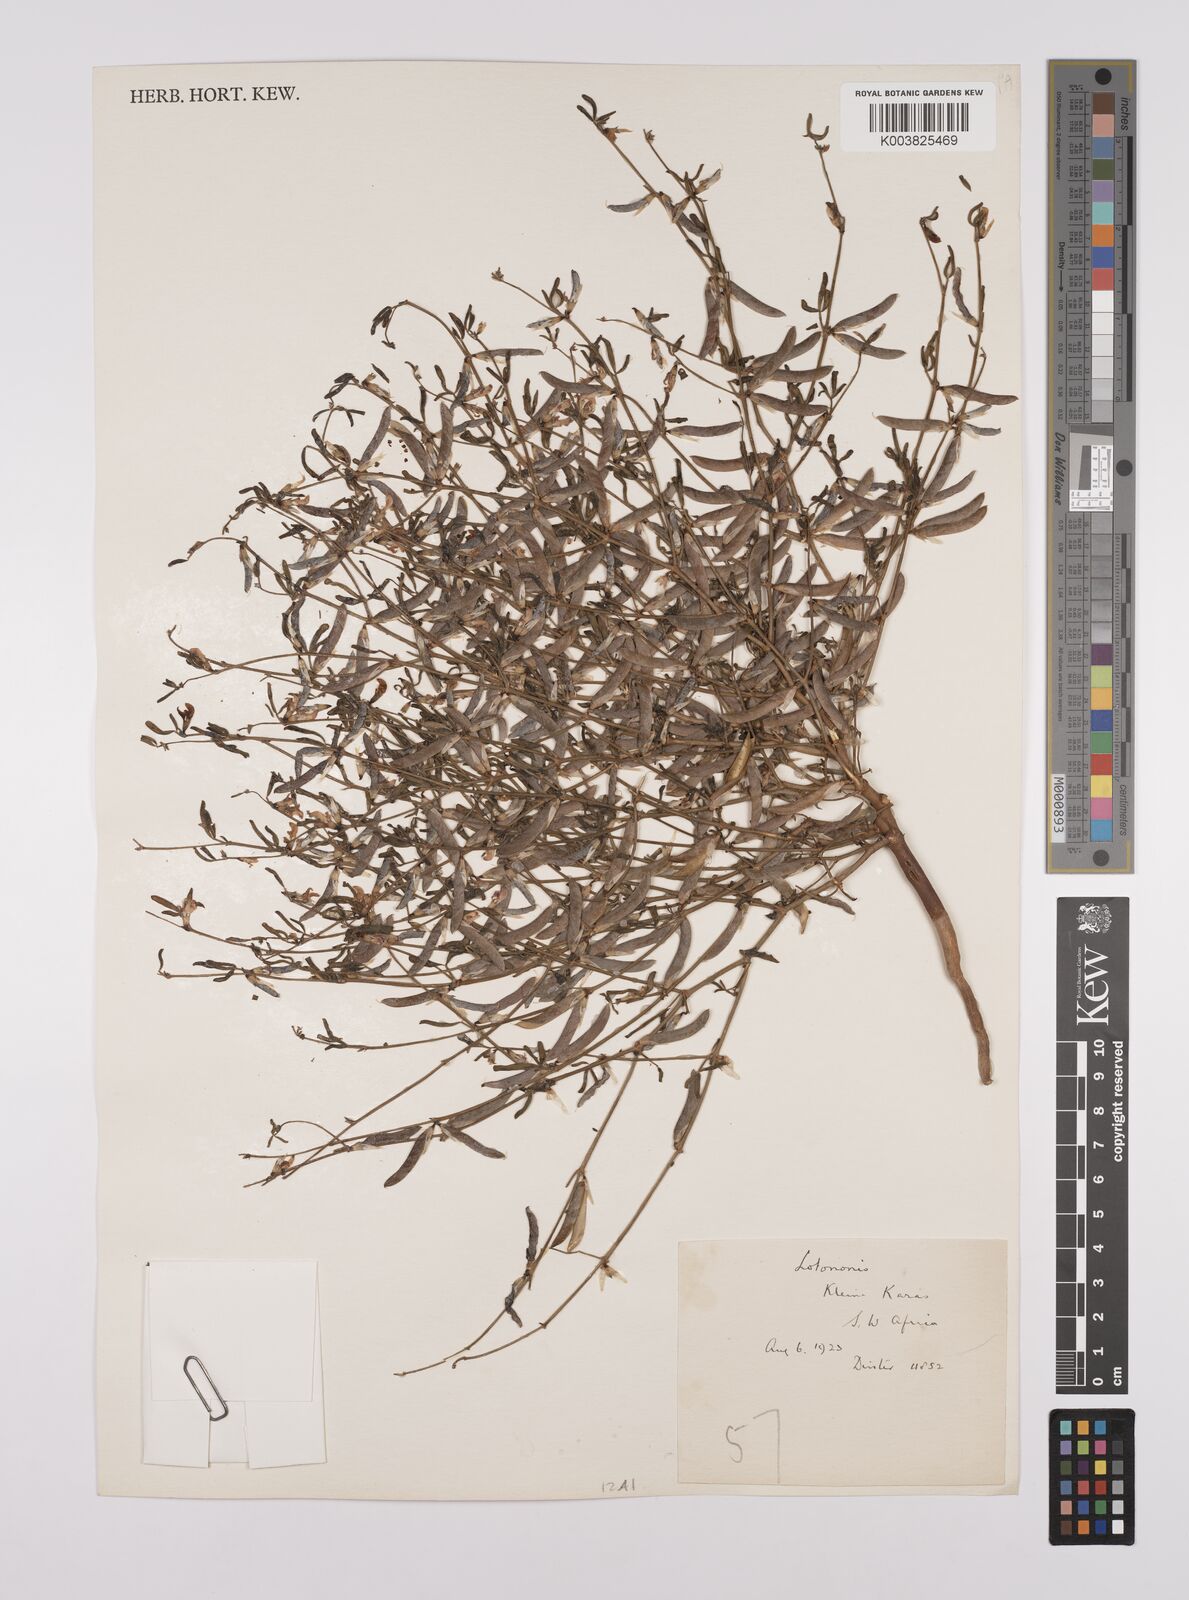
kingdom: Plantae
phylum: Tracheophyta
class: Magnoliopsida
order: Fabales
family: Fabaceae
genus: Lotononis
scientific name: Lotononis falcata
